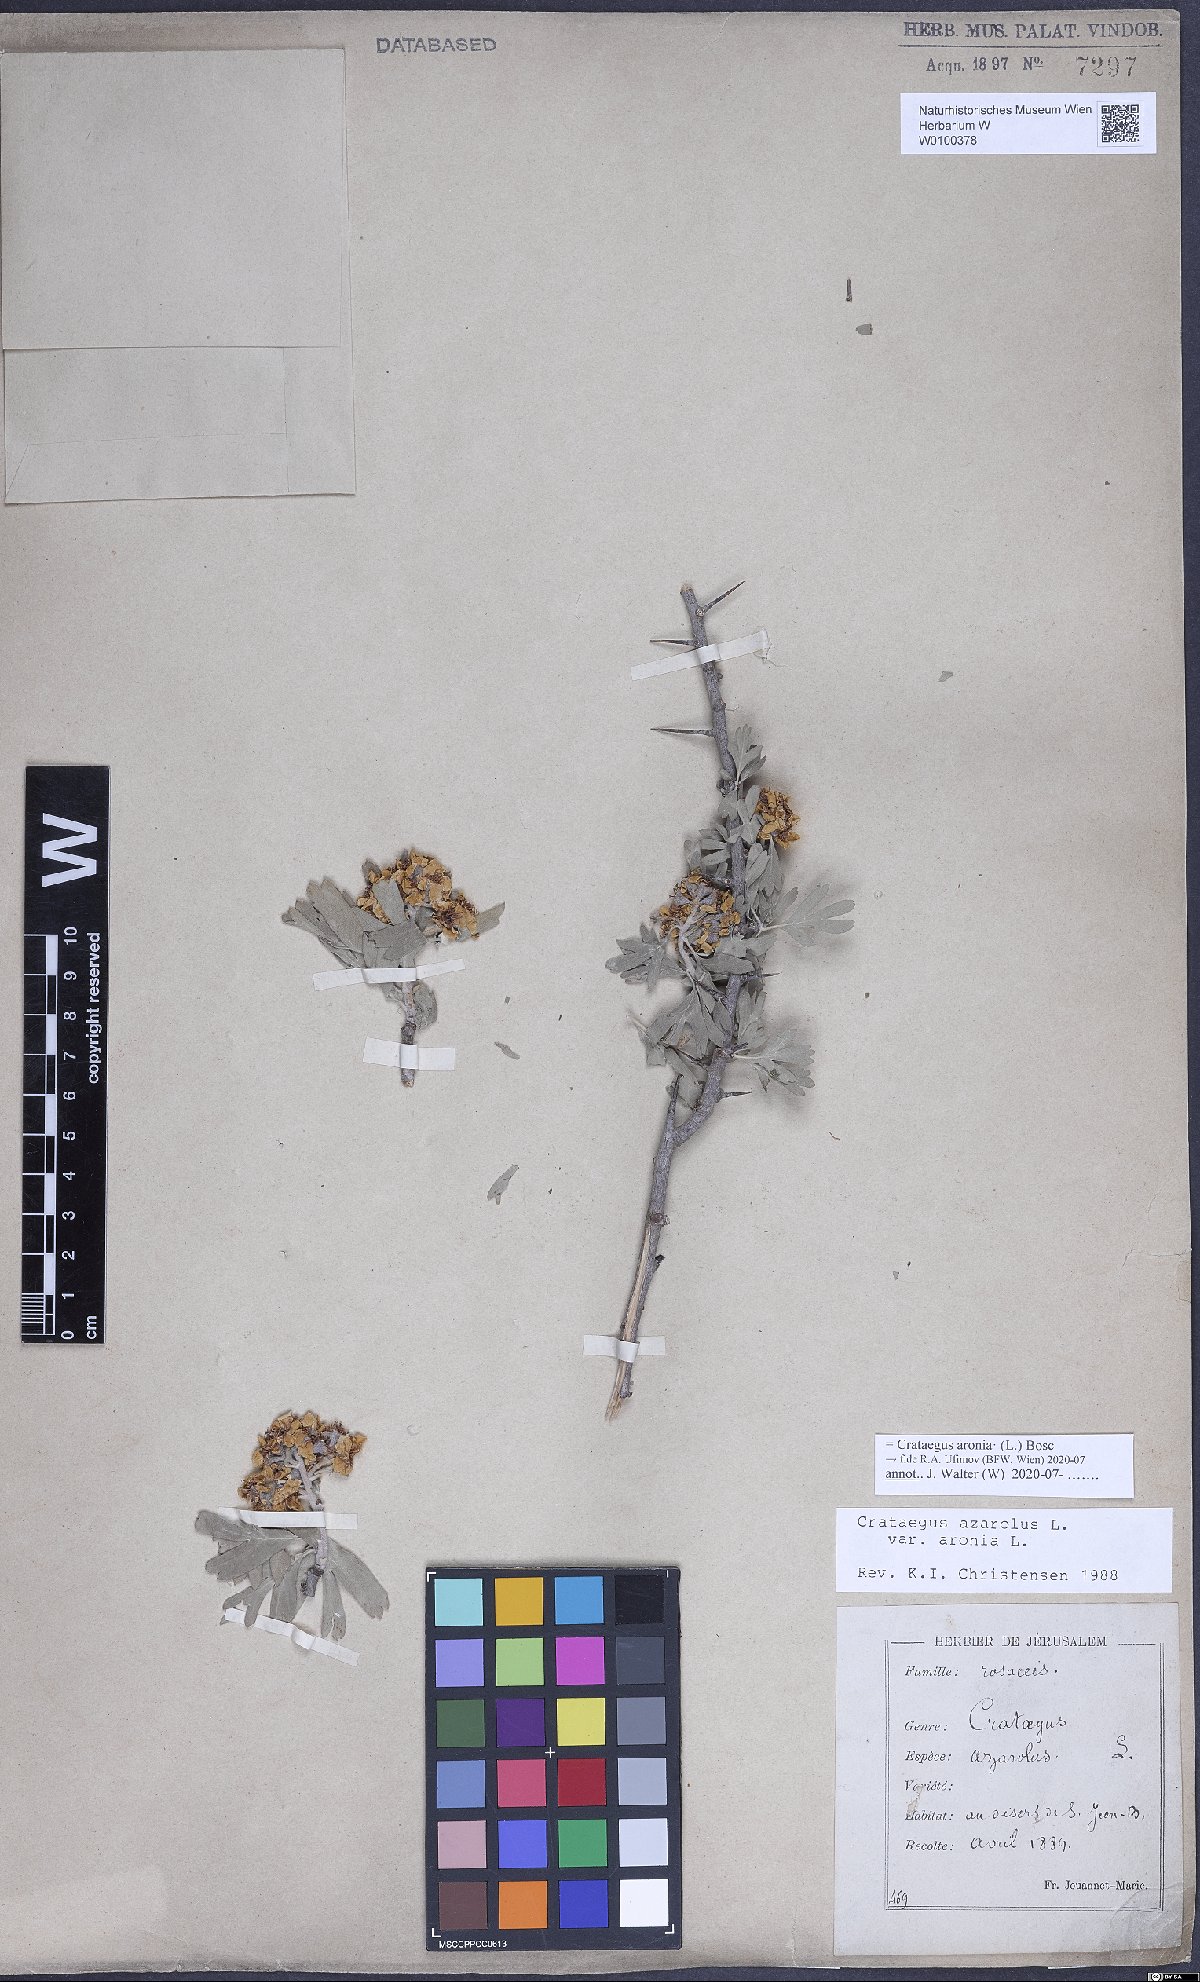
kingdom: Plantae
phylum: Tracheophyta
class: Magnoliopsida
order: Rosales
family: Rosaceae
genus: Crataegus
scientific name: Crataegus azarolus
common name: Azarole
